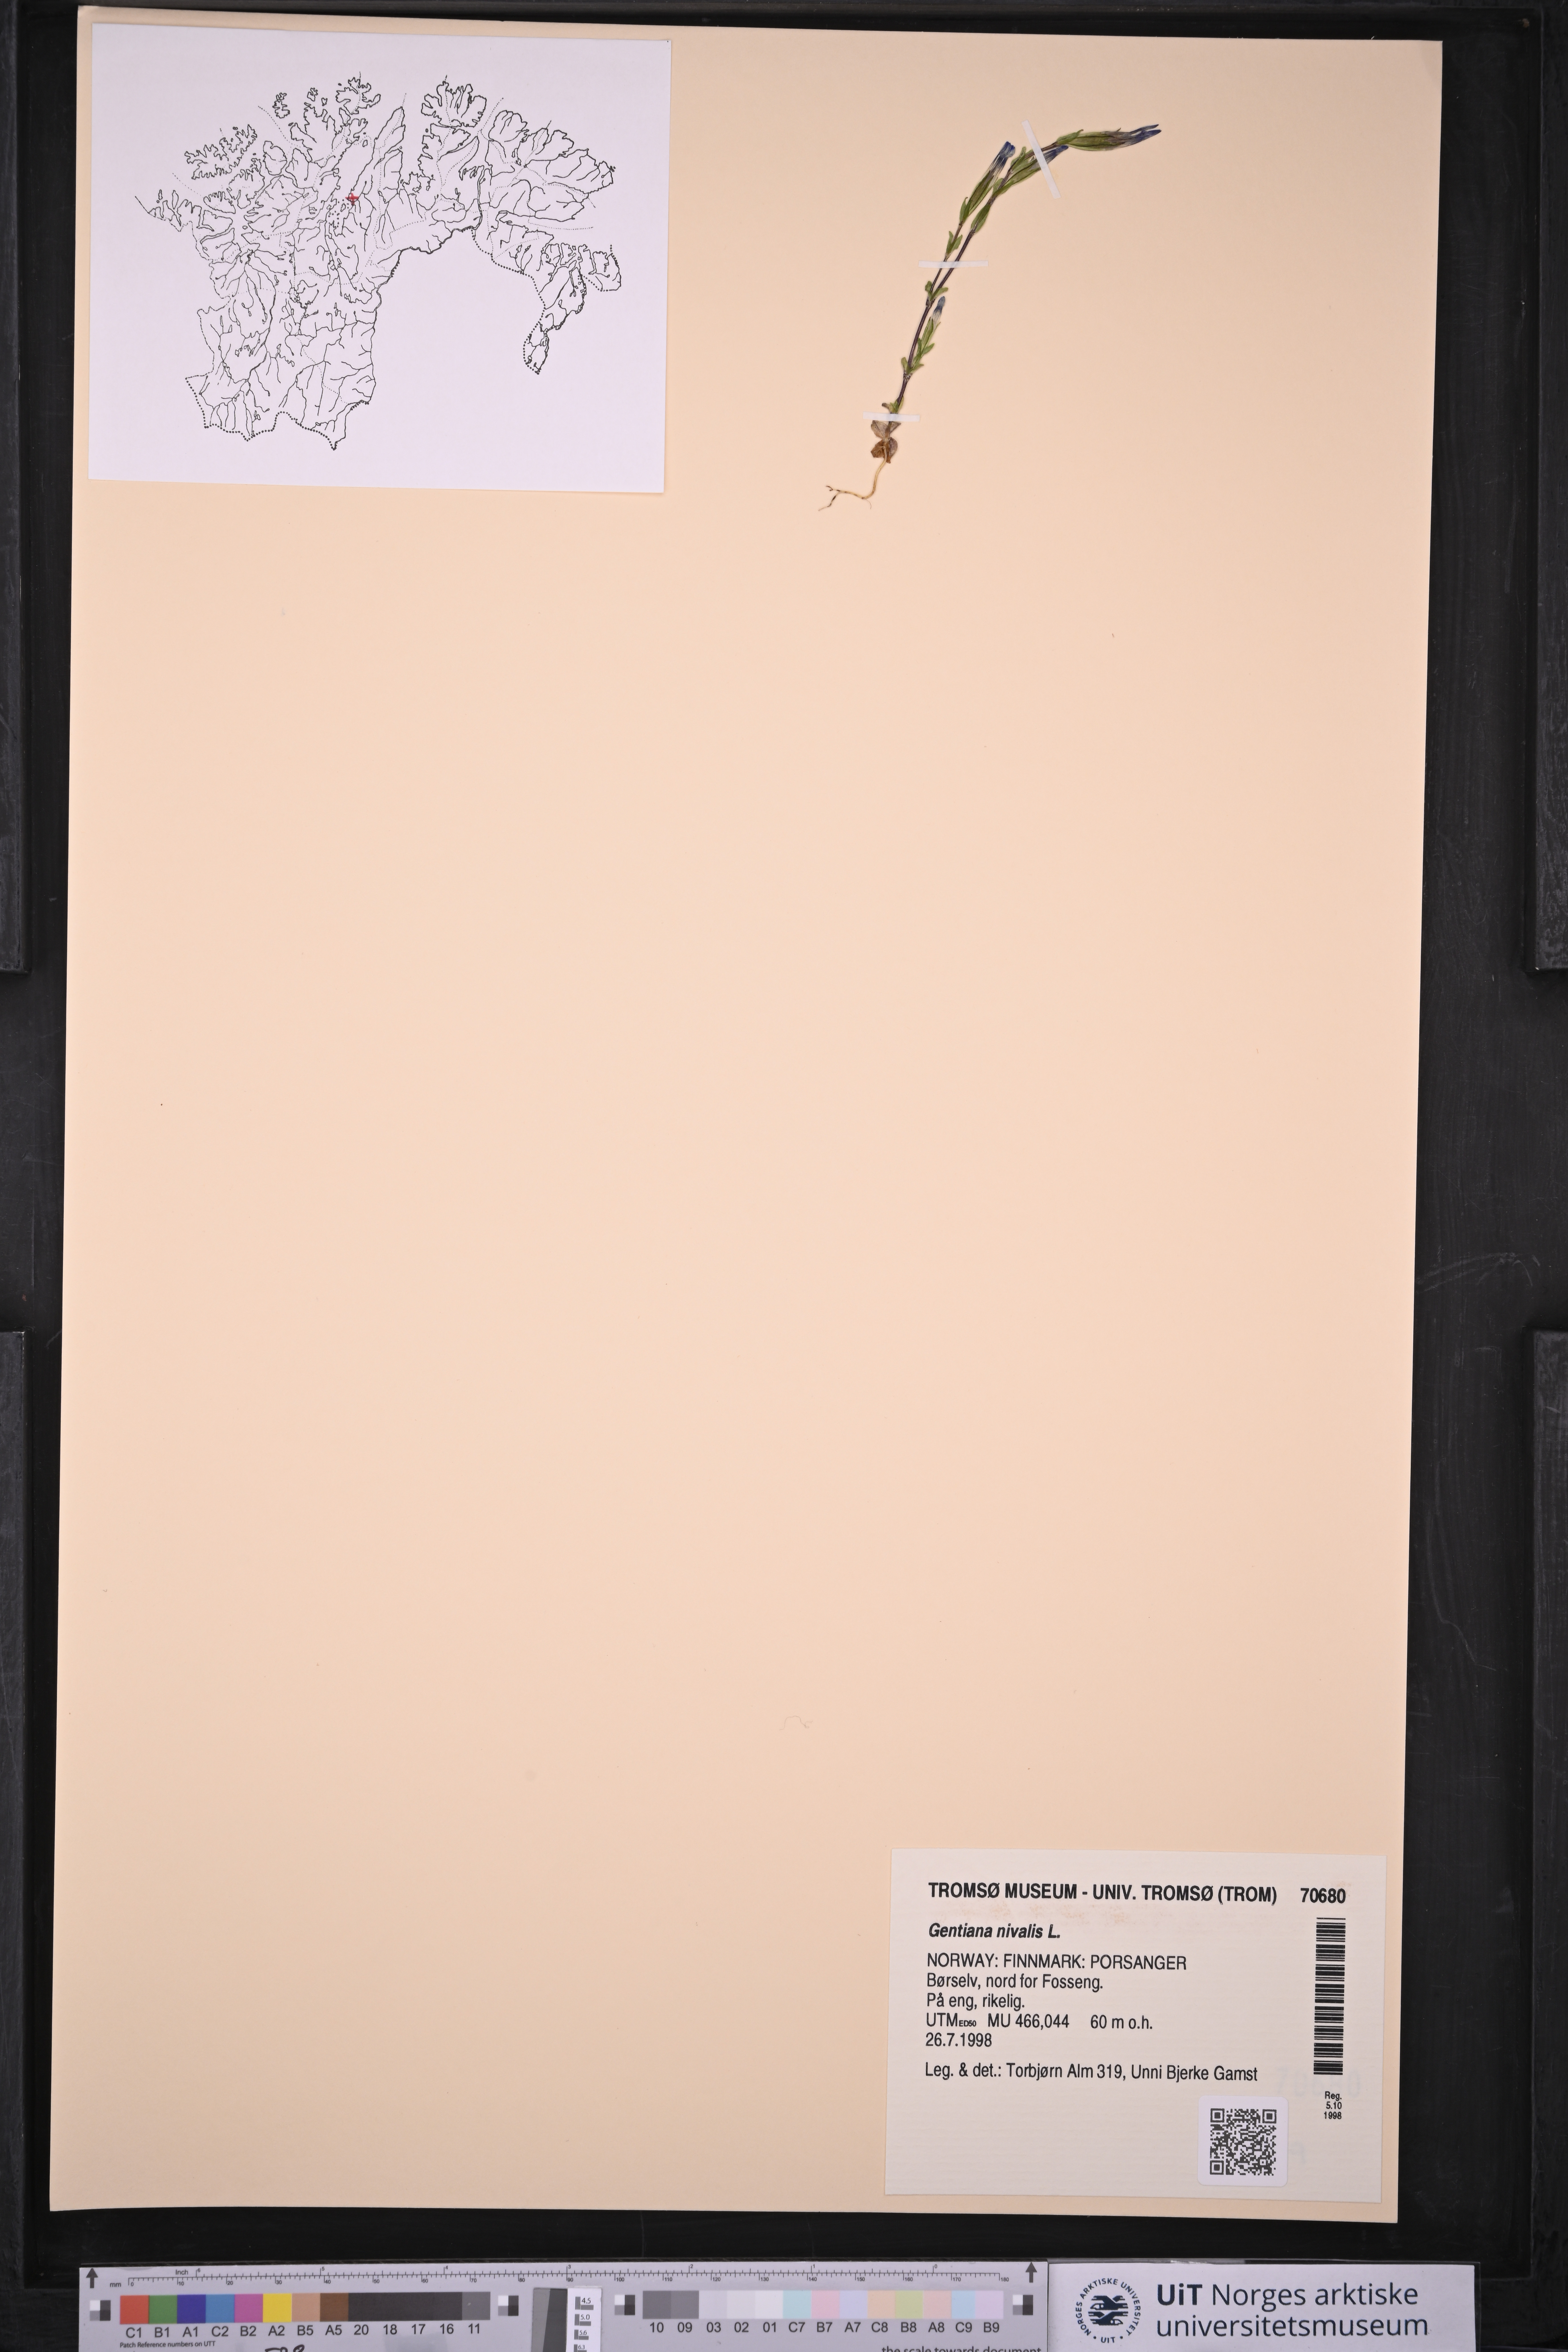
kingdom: Plantae
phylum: Tracheophyta
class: Magnoliopsida
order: Gentianales
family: Gentianaceae
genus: Gentiana
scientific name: Gentiana nivalis
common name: Alpine gentian
